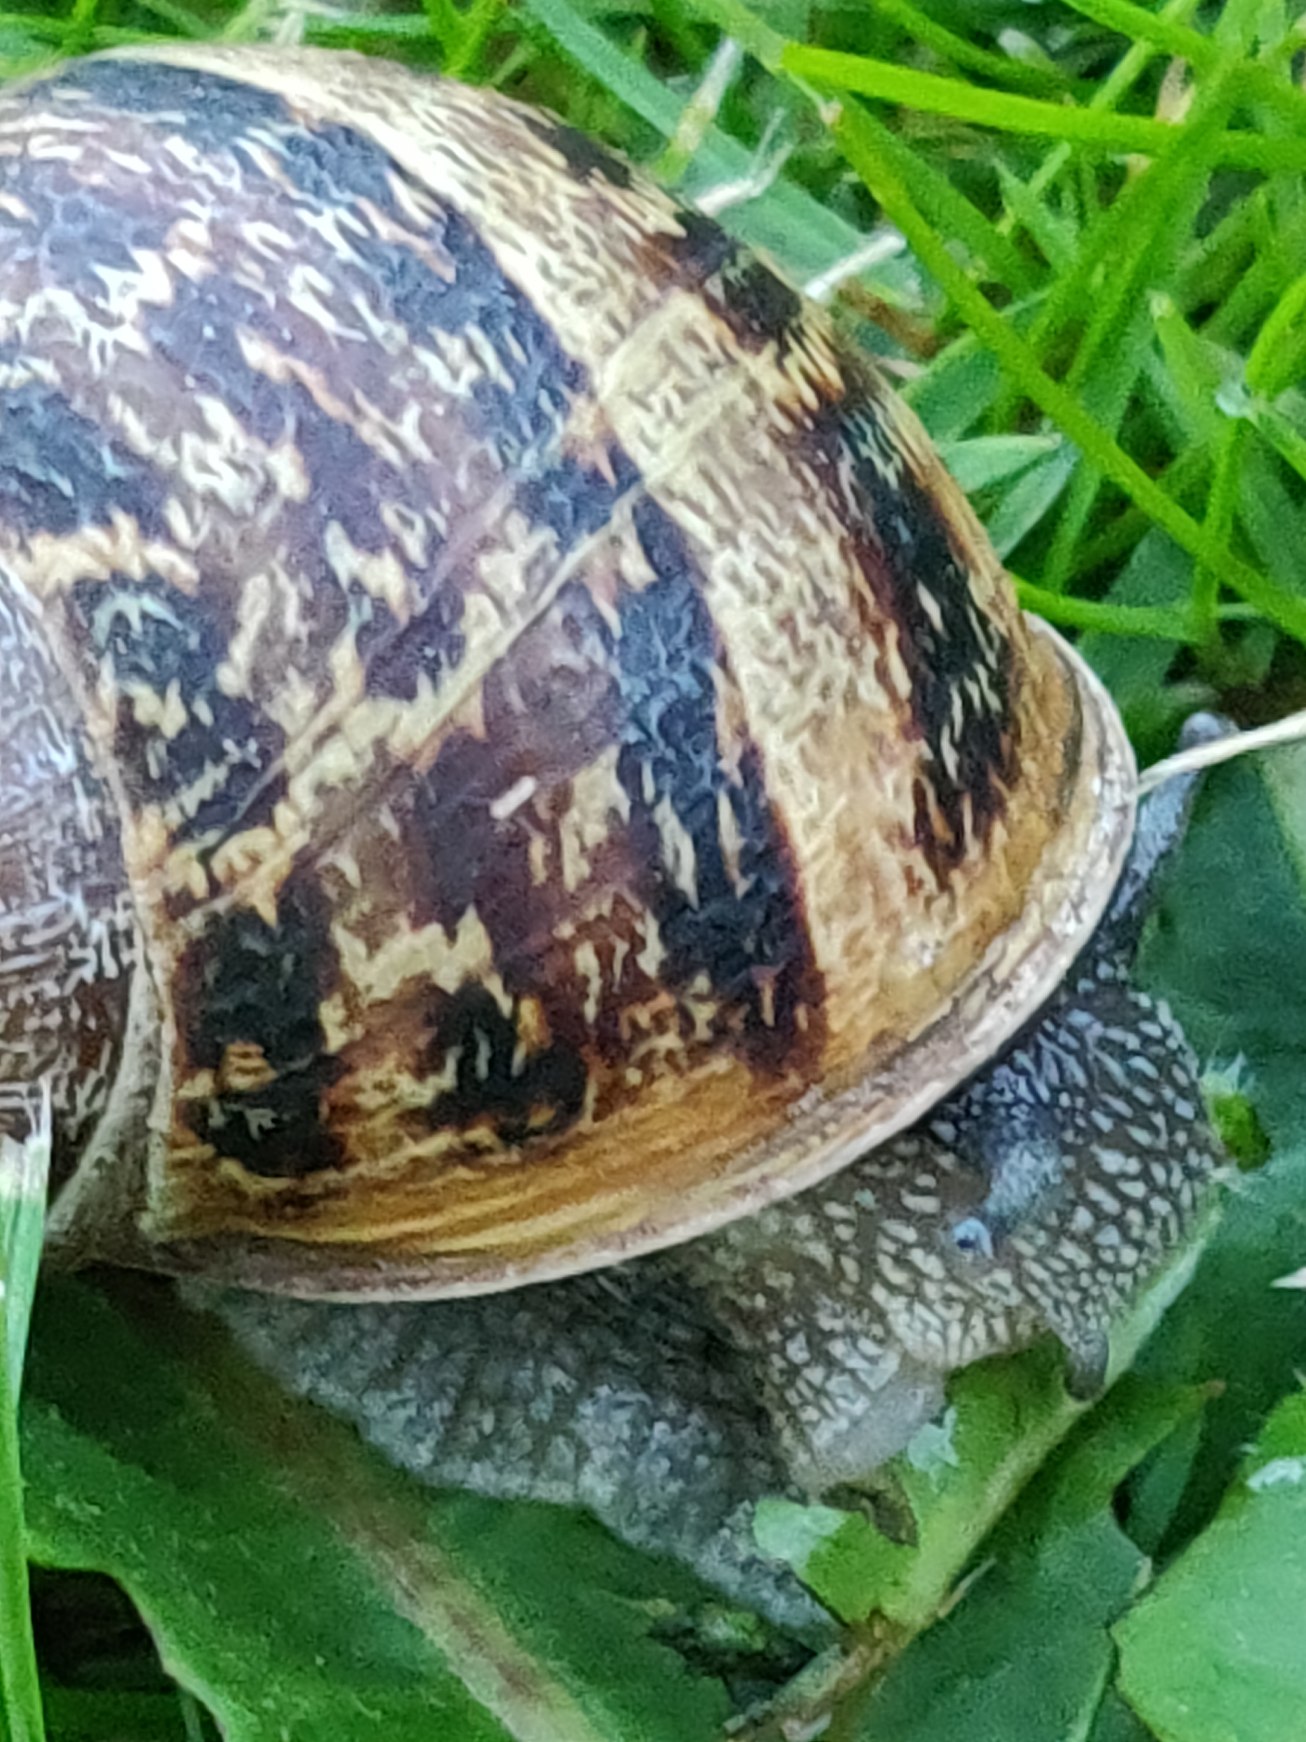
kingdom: Animalia
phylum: Mollusca
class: Gastropoda
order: Stylommatophora
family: Helicidae
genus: Cornu
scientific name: Cornu aspersum
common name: Plettet voldsnegl
